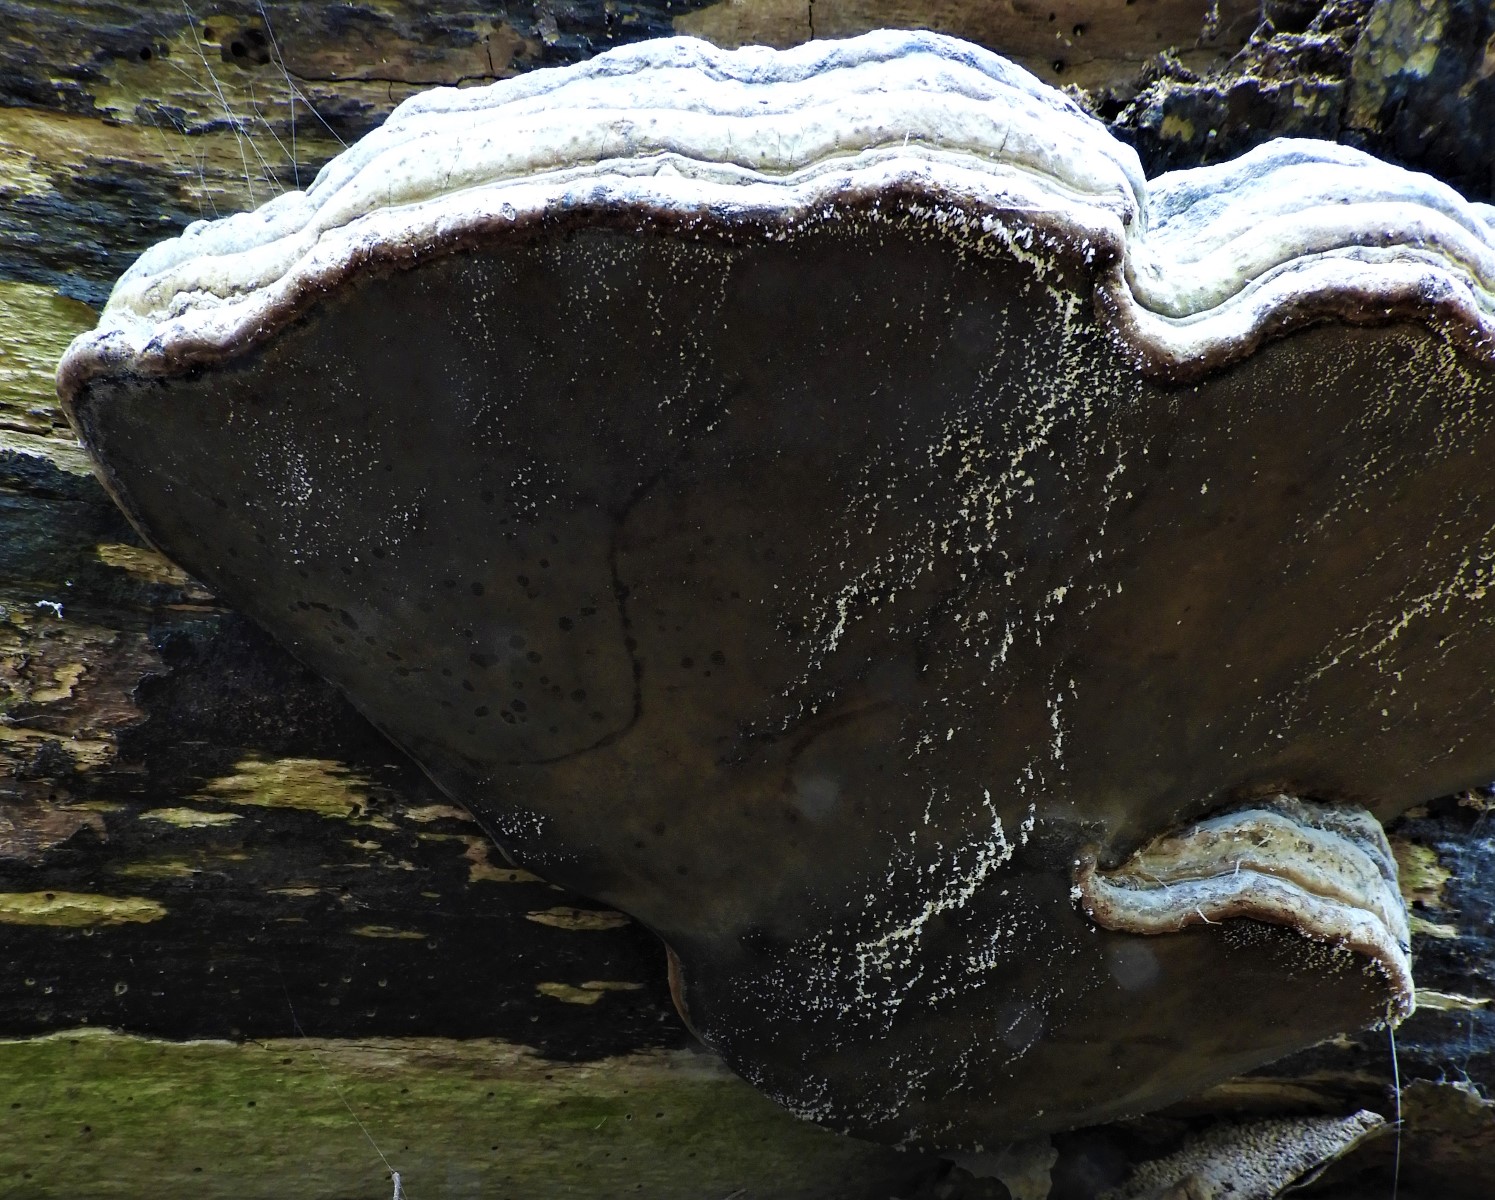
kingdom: Fungi
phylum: Basidiomycota
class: Agaricomycetes
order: Polyporales
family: Polyporaceae
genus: Fomes
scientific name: Fomes fomentarius
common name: tøndersvamp
